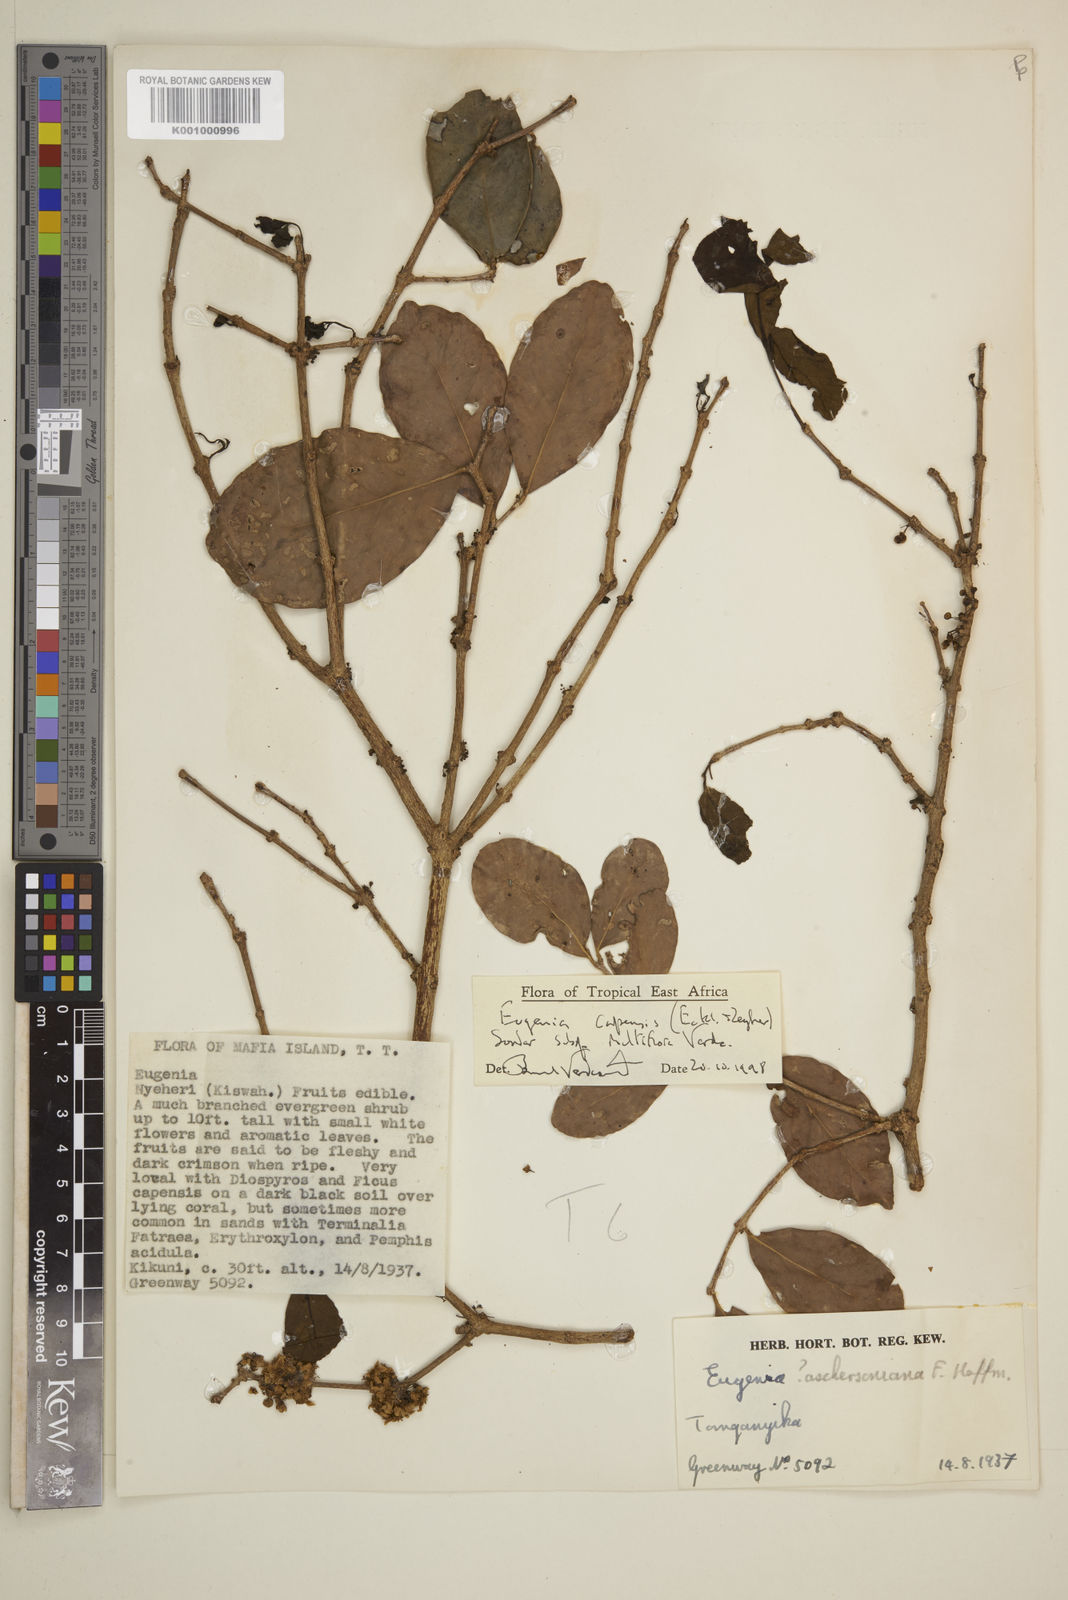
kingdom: Plantae
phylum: Tracheophyta
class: Magnoliopsida
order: Myrtales
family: Myrtaceae
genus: Eugenia
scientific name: Eugenia capensis
